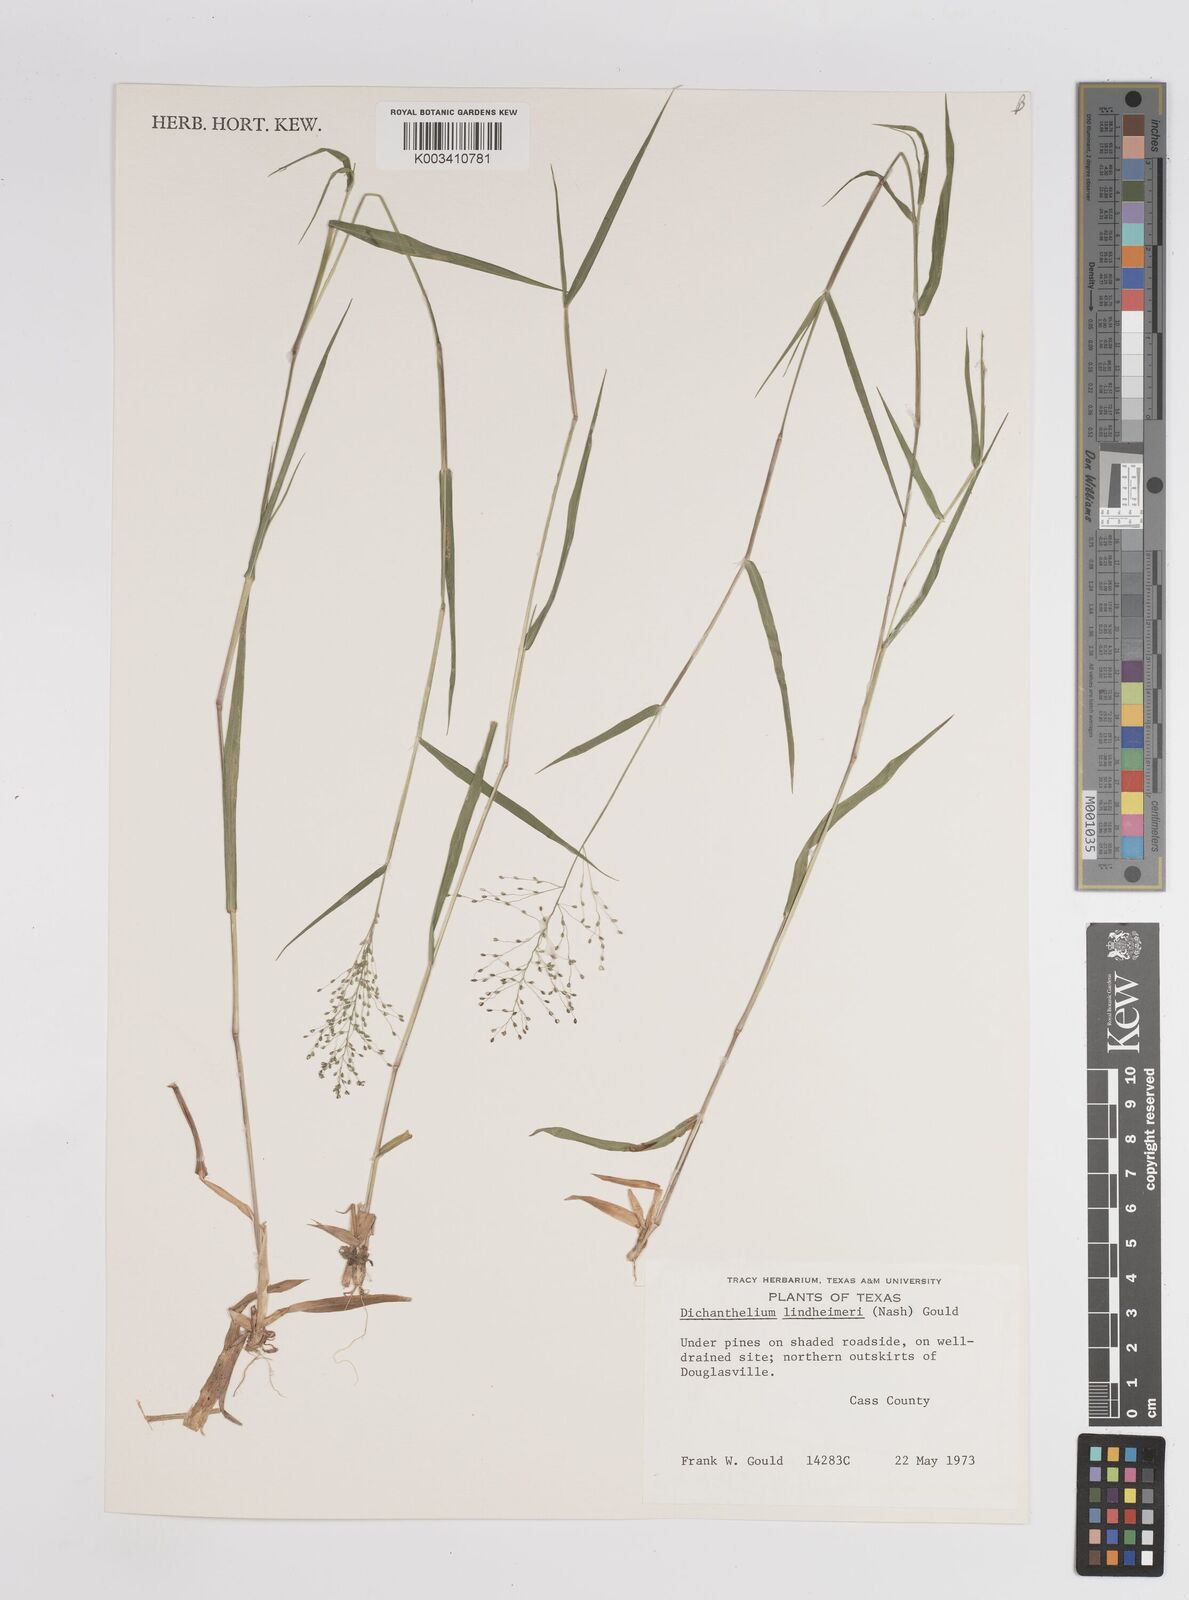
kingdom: Plantae
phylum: Tracheophyta
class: Liliopsida
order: Poales
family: Poaceae
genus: Dichanthelium
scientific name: Dichanthelium acuminatum
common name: Hairy panic grass
